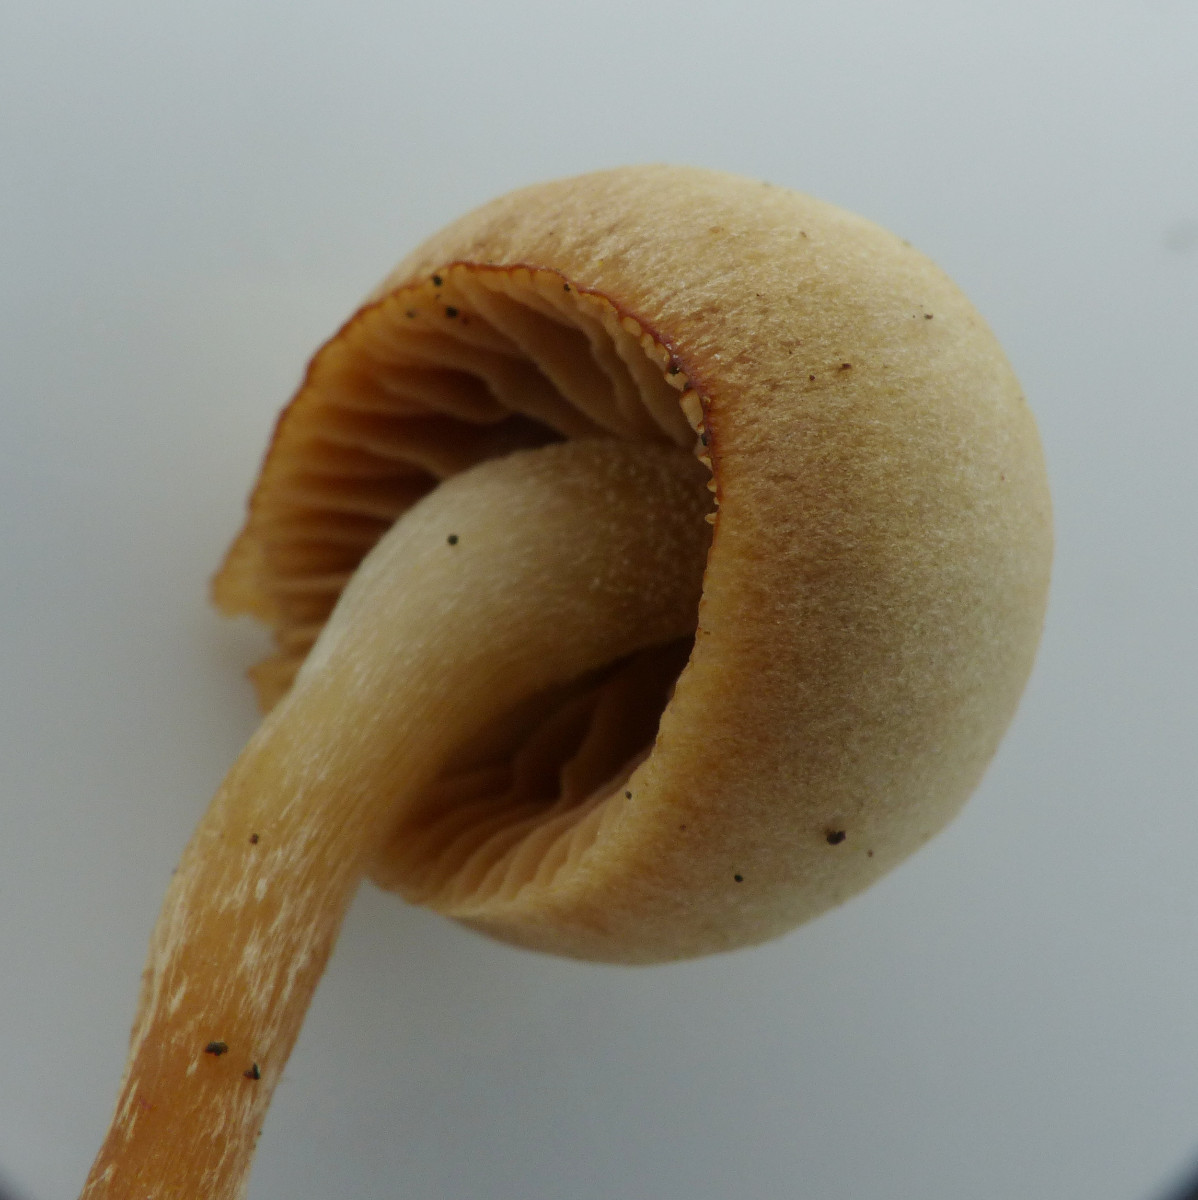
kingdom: Fungi
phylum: Basidiomycota
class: Agaricomycetes
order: Agaricales
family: Hymenogastraceae
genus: Galerina
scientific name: Galerina mniophila
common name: olivengul hjelmhat
